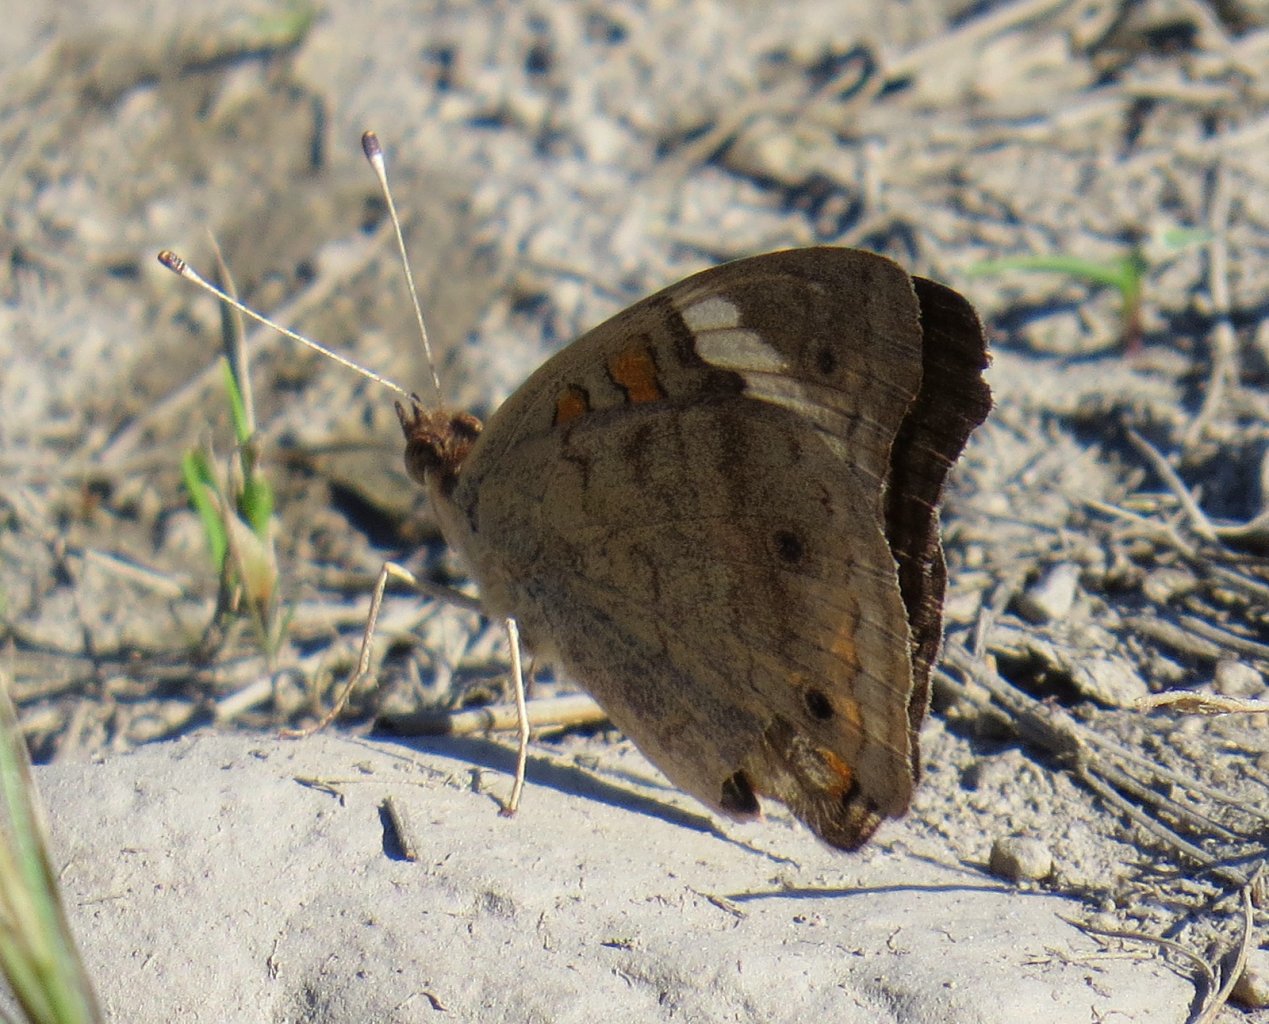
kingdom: Animalia
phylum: Arthropoda
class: Insecta
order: Lepidoptera
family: Nymphalidae
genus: Junonia
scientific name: Junonia coenia
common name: Common Buckeye
